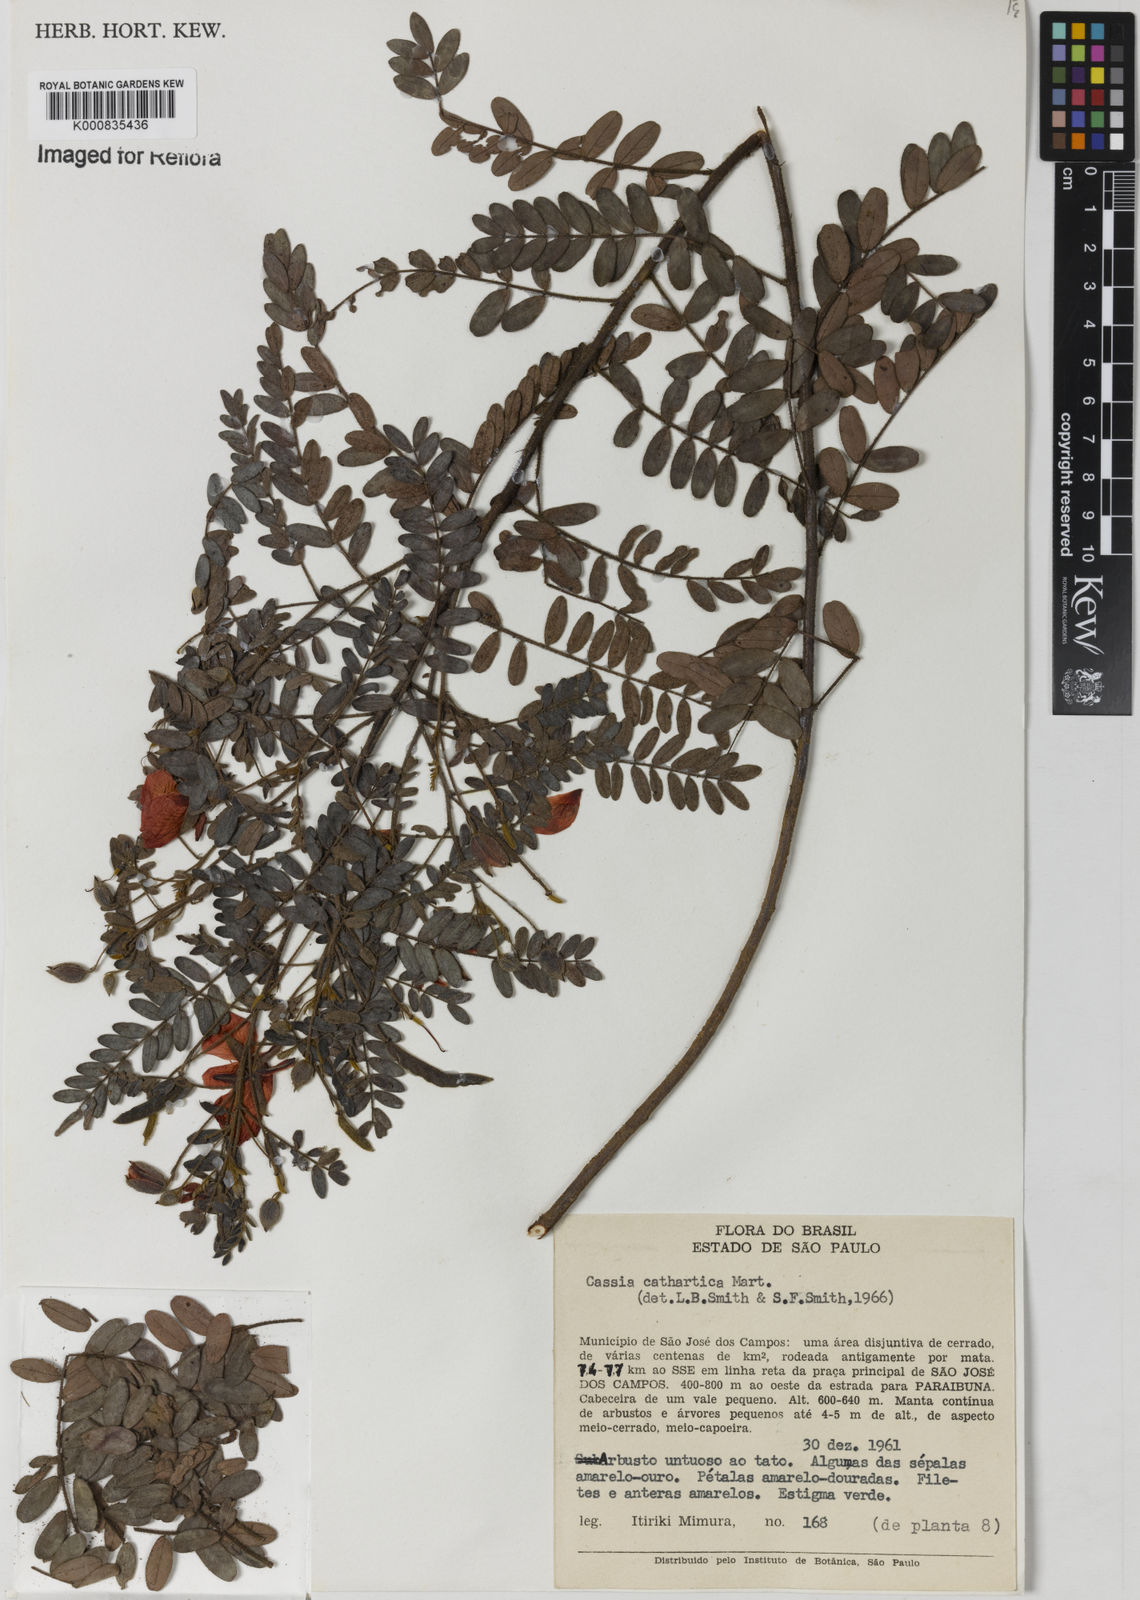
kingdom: Plantae
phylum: Tracheophyta
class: Magnoliopsida
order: Fabales
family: Fabaceae
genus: Chamaecrista
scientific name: Chamaecrista cathartica
